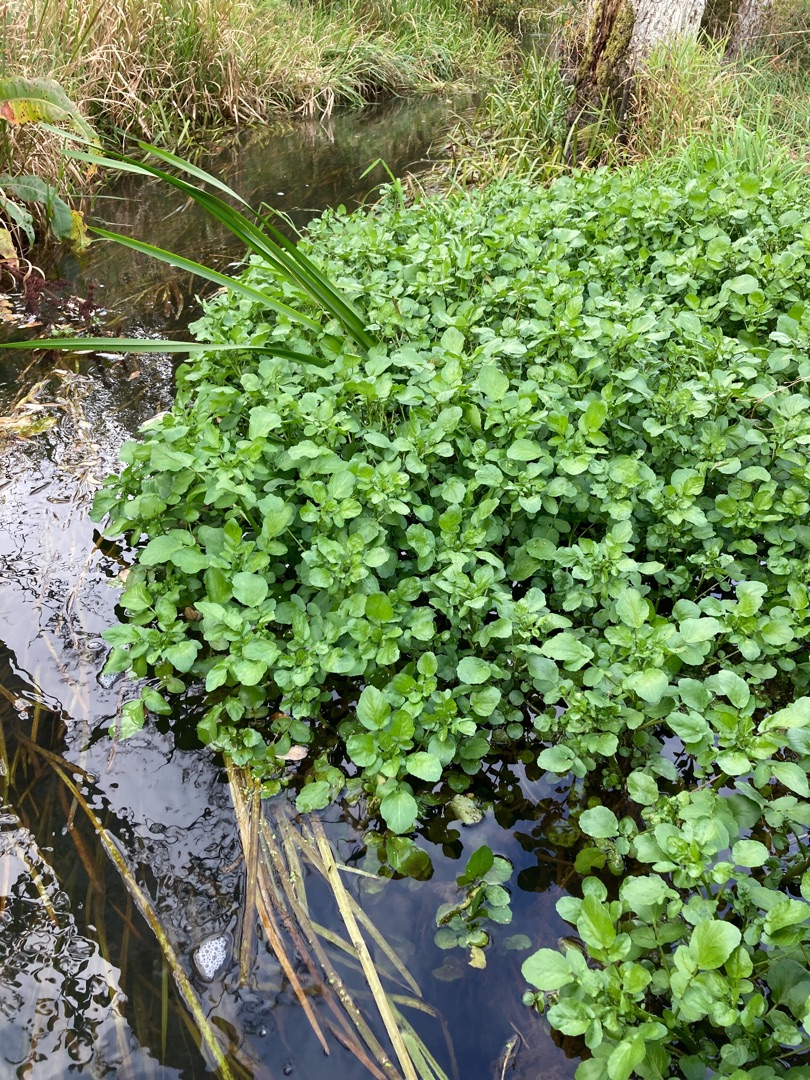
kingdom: Plantae
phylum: Tracheophyta
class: Magnoliopsida
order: Brassicales
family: Brassicaceae
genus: Nasturtium
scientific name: Nasturtium
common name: Brøndkarseslægten
